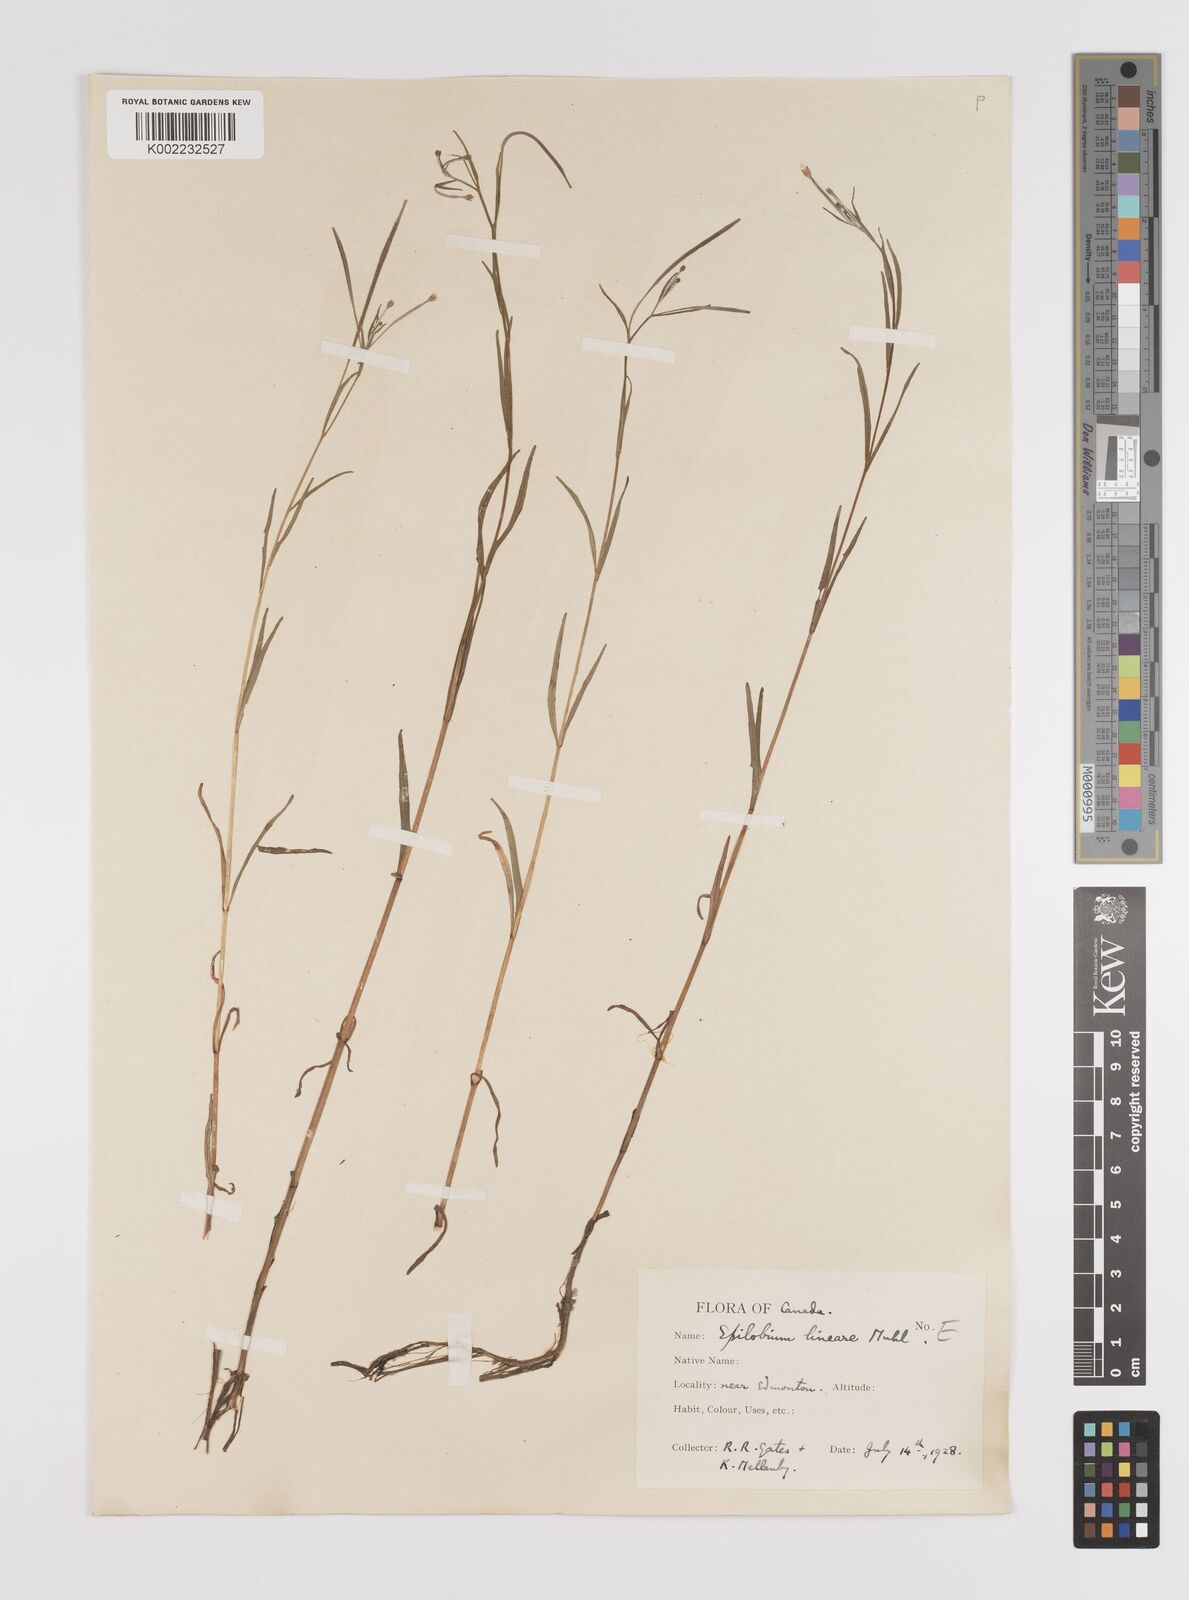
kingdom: Plantae
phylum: Tracheophyta
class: Magnoliopsida
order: Myrtales
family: Onagraceae
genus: Epilobium
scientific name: Epilobium palustre
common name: Marsh willowherb
